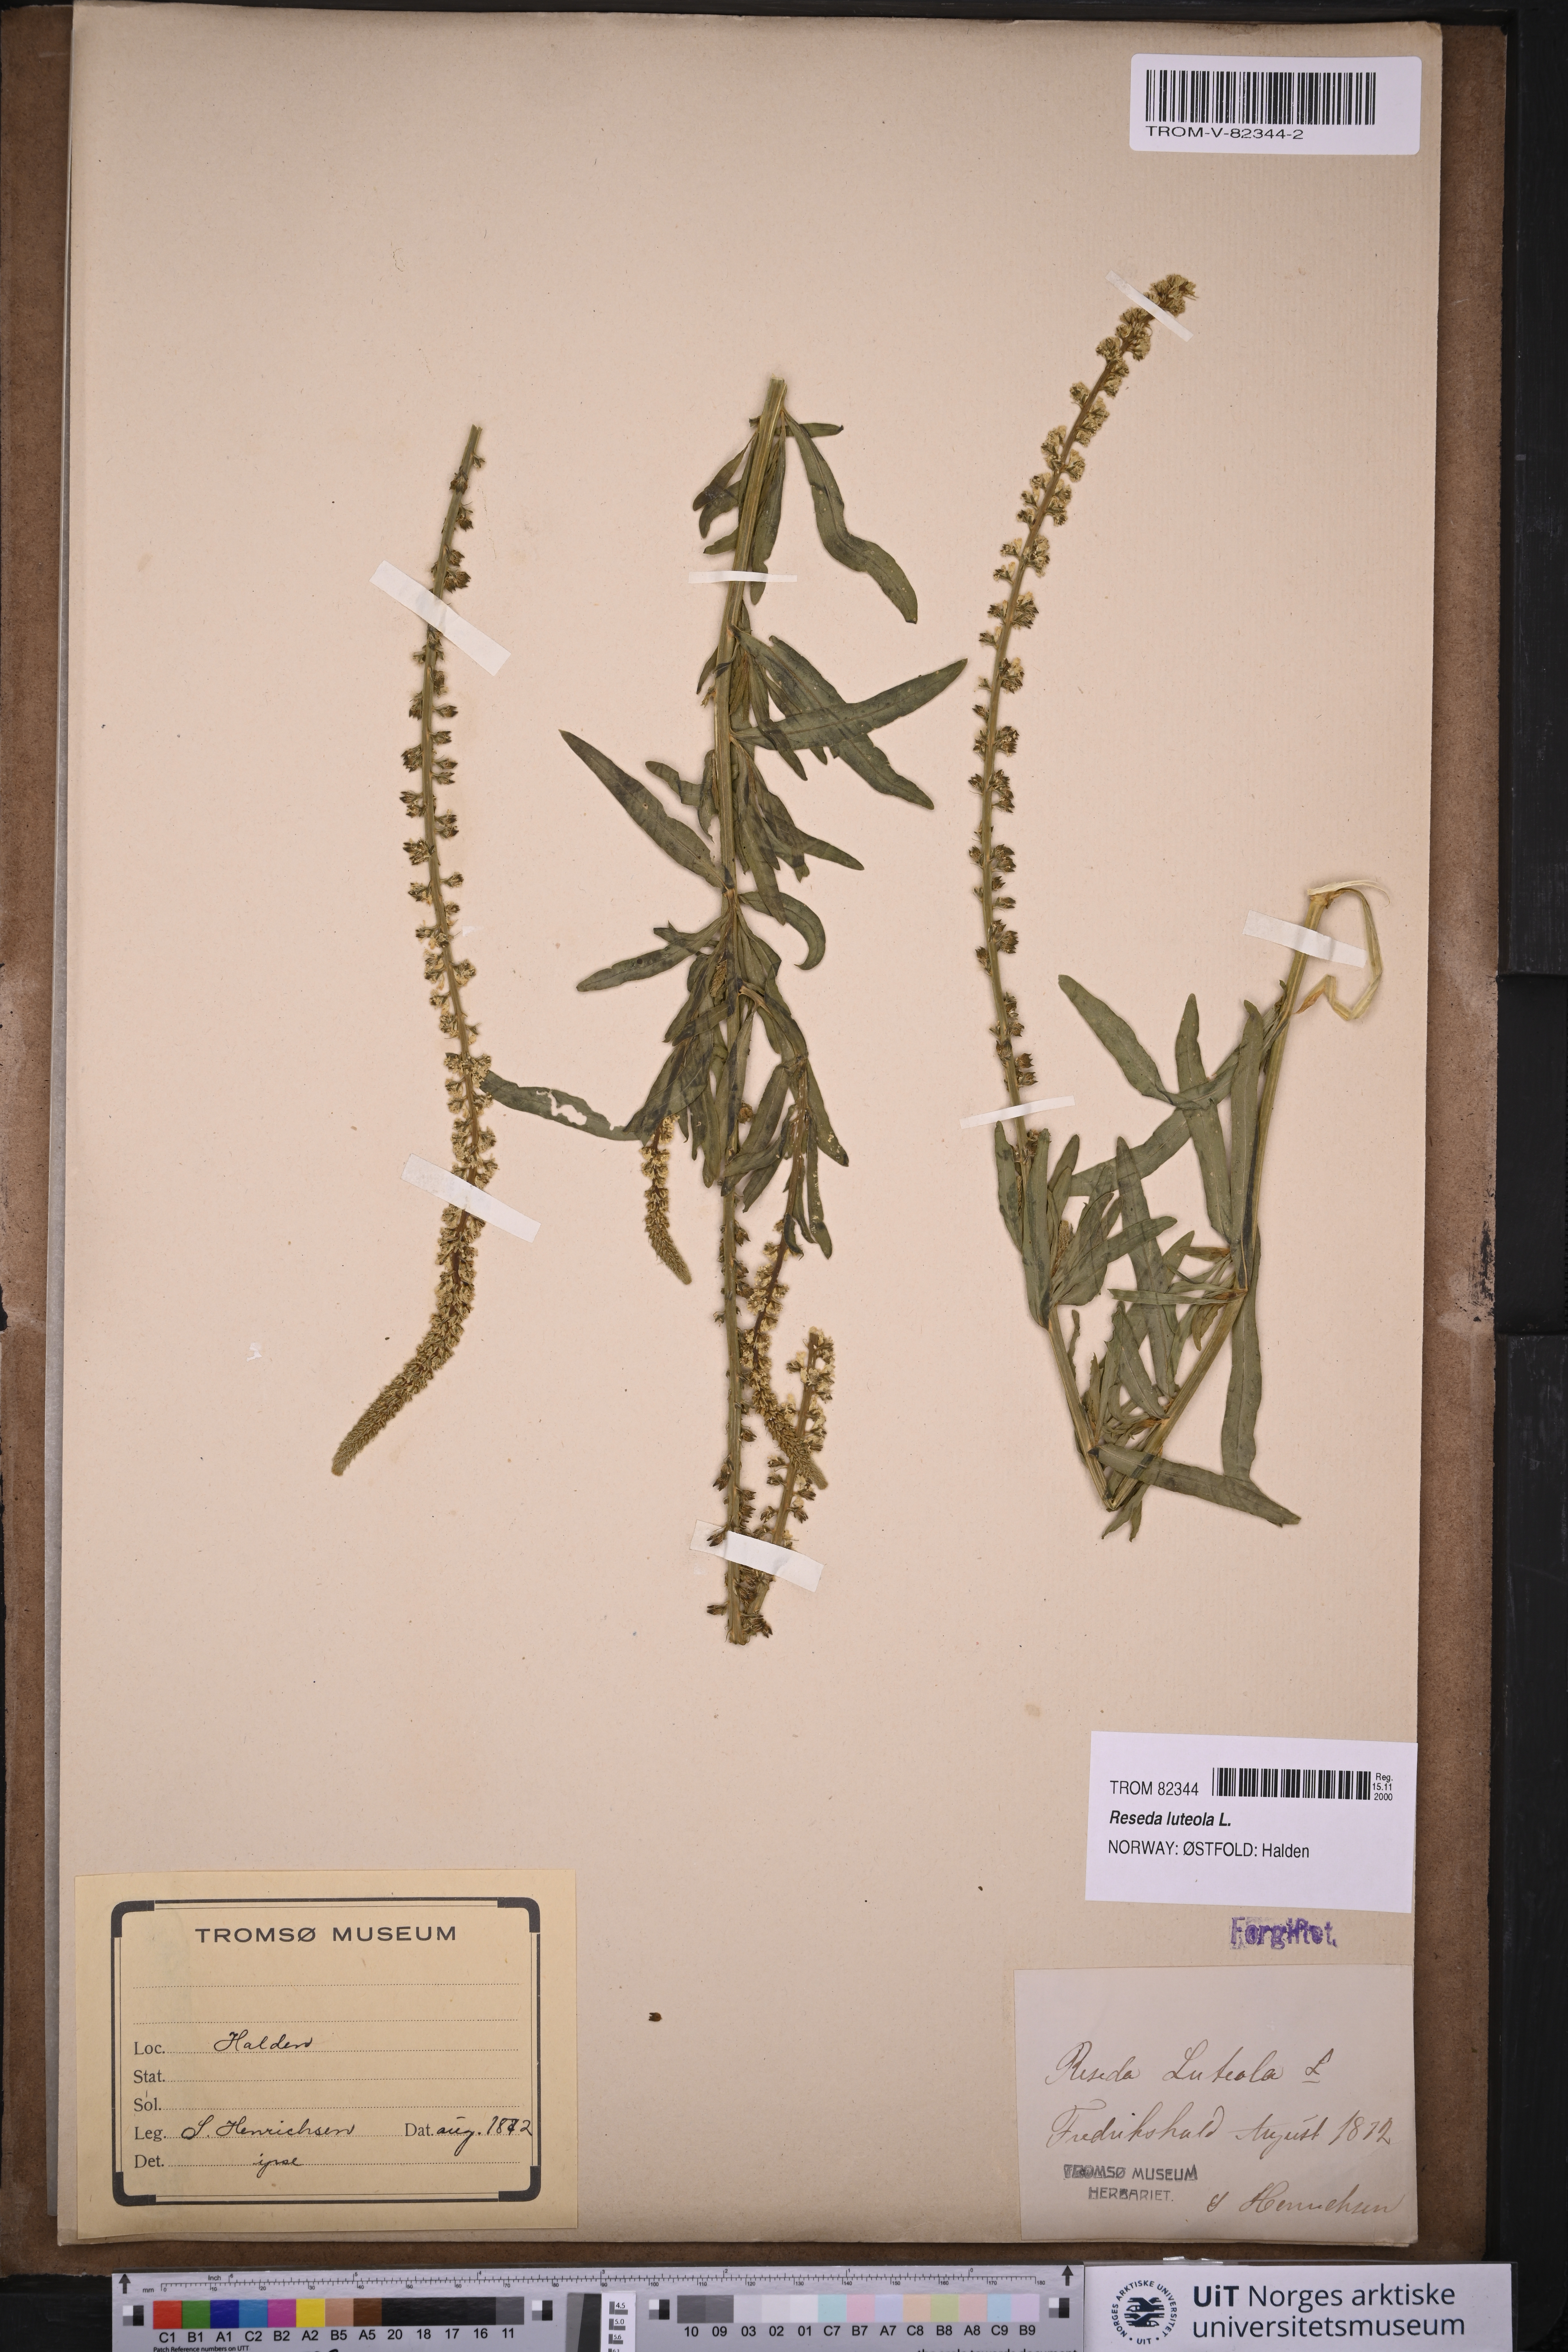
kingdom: Plantae
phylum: Tracheophyta
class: Magnoliopsida
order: Brassicales
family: Resedaceae
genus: Reseda
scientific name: Reseda luteola
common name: Weld
